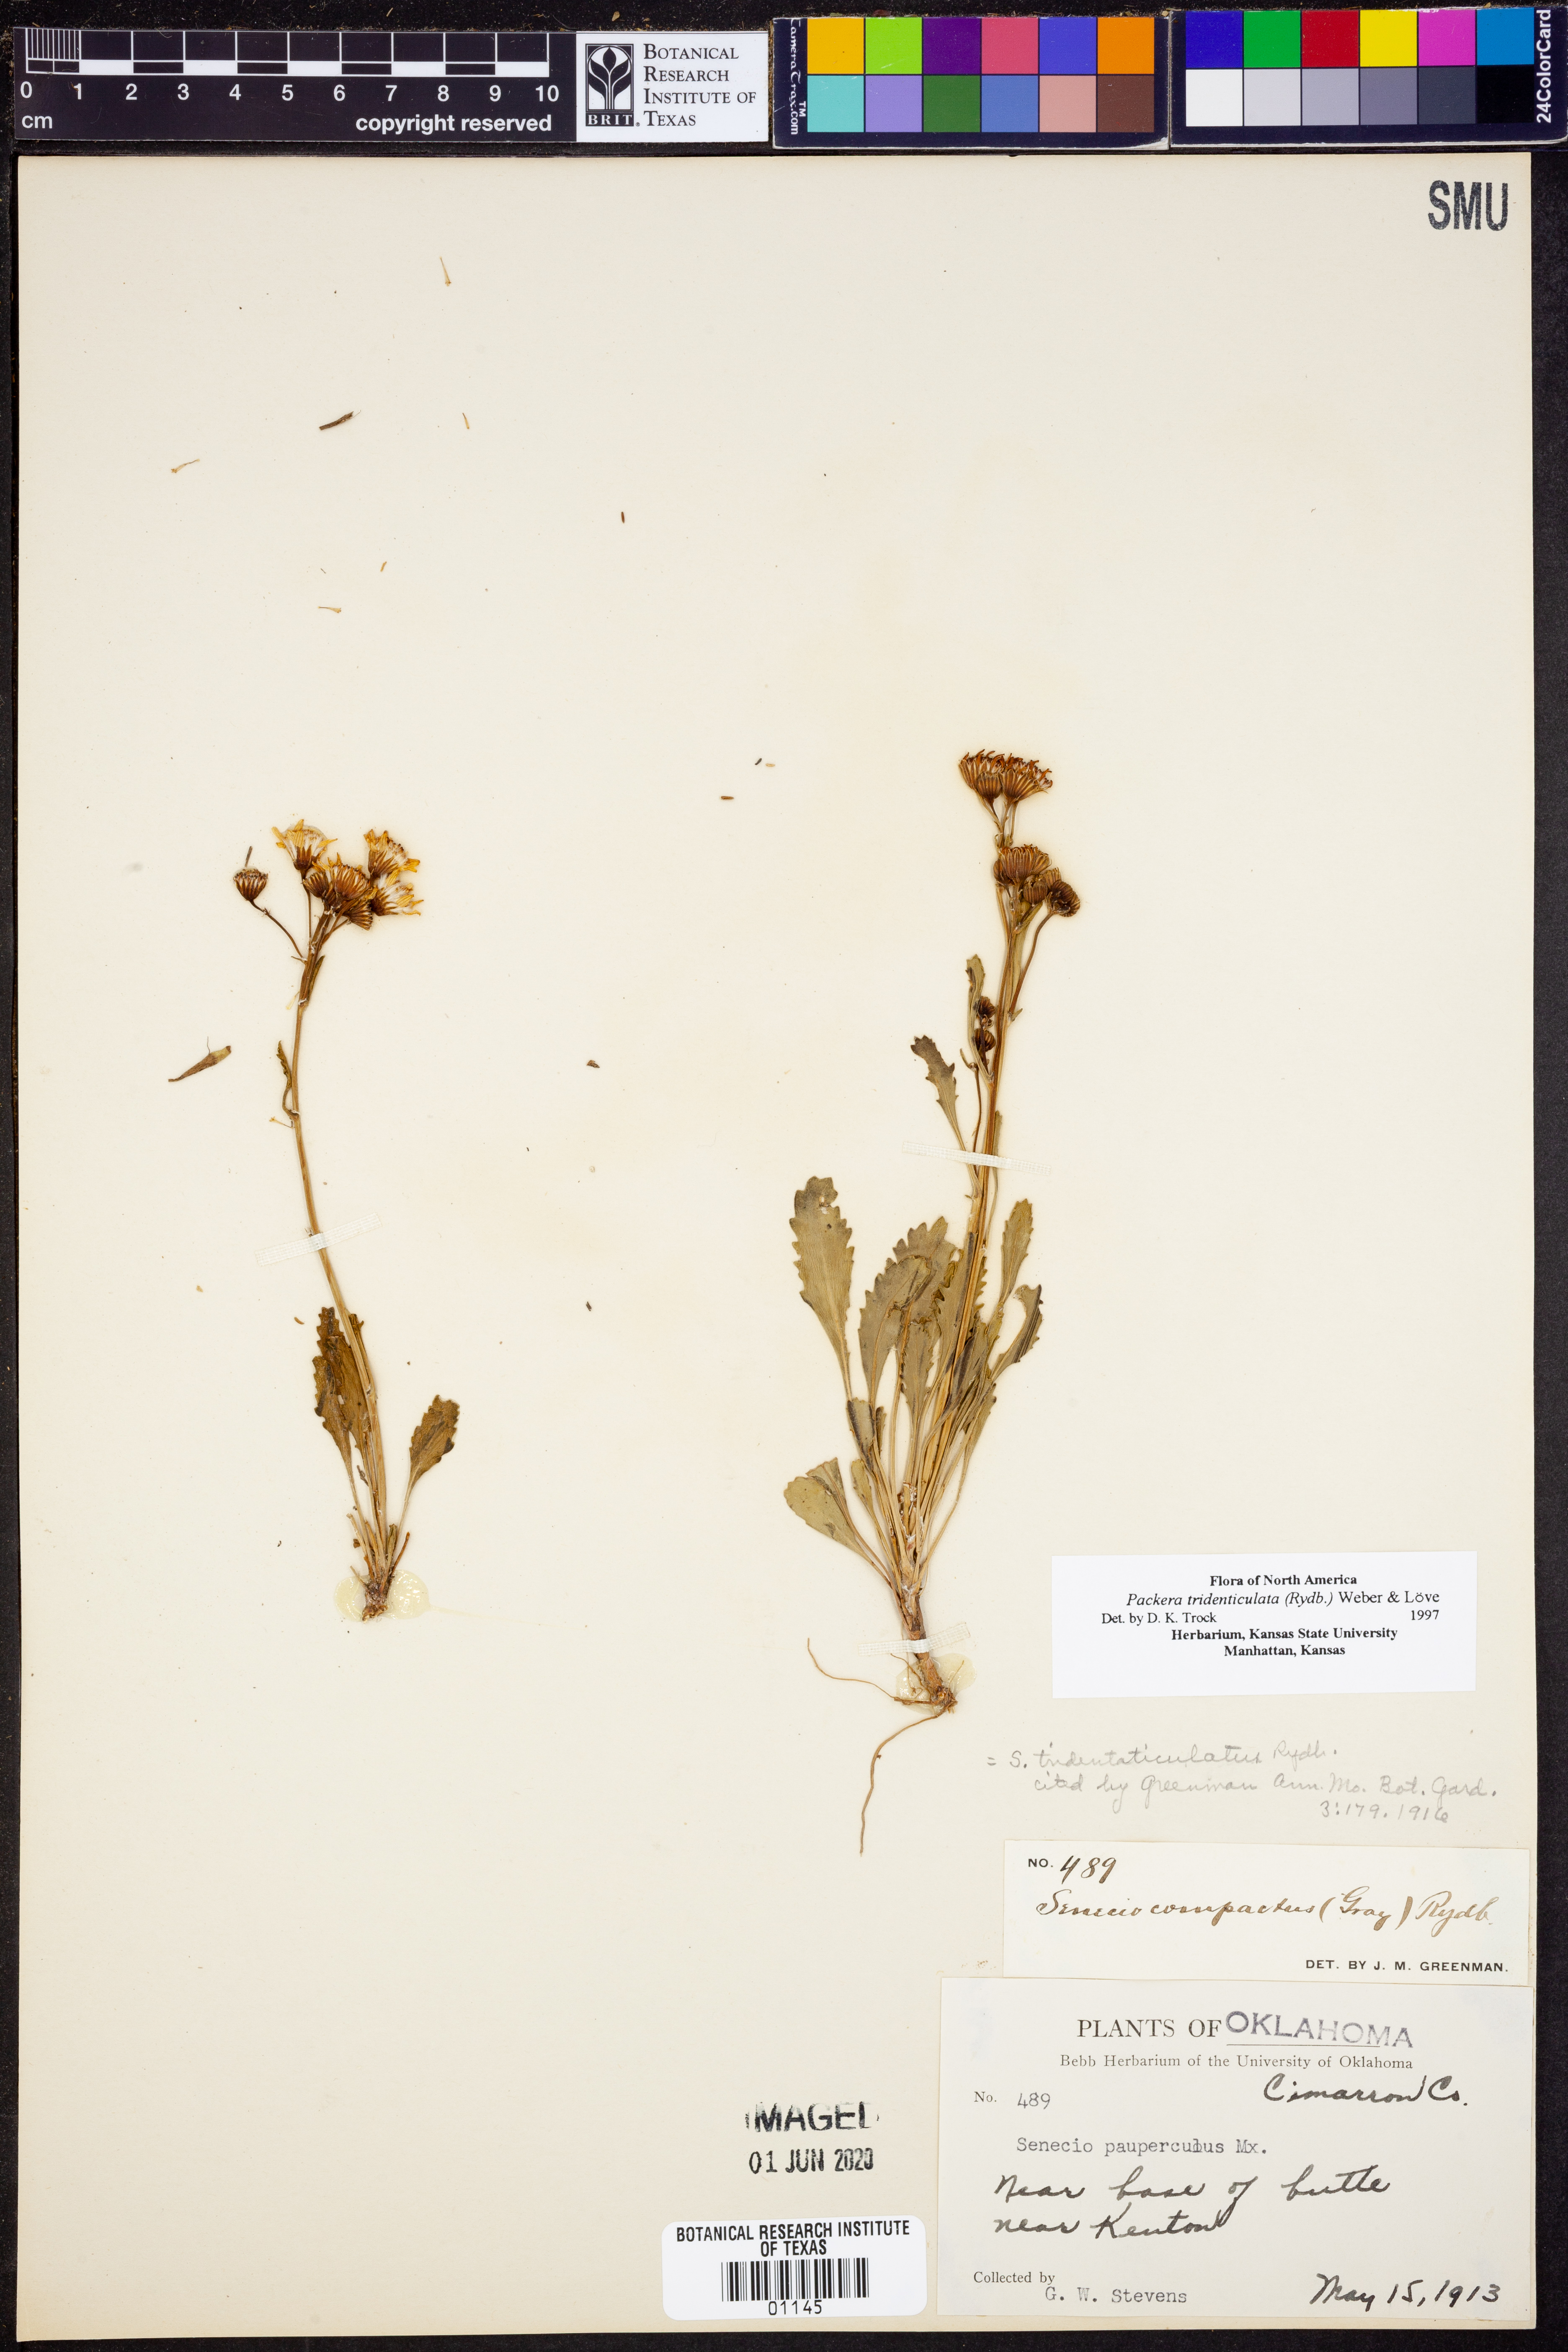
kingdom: Plantae
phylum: Tracheophyta
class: Magnoliopsida
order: Asterales
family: Asteraceae
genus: Packera
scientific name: Packera thurberi
